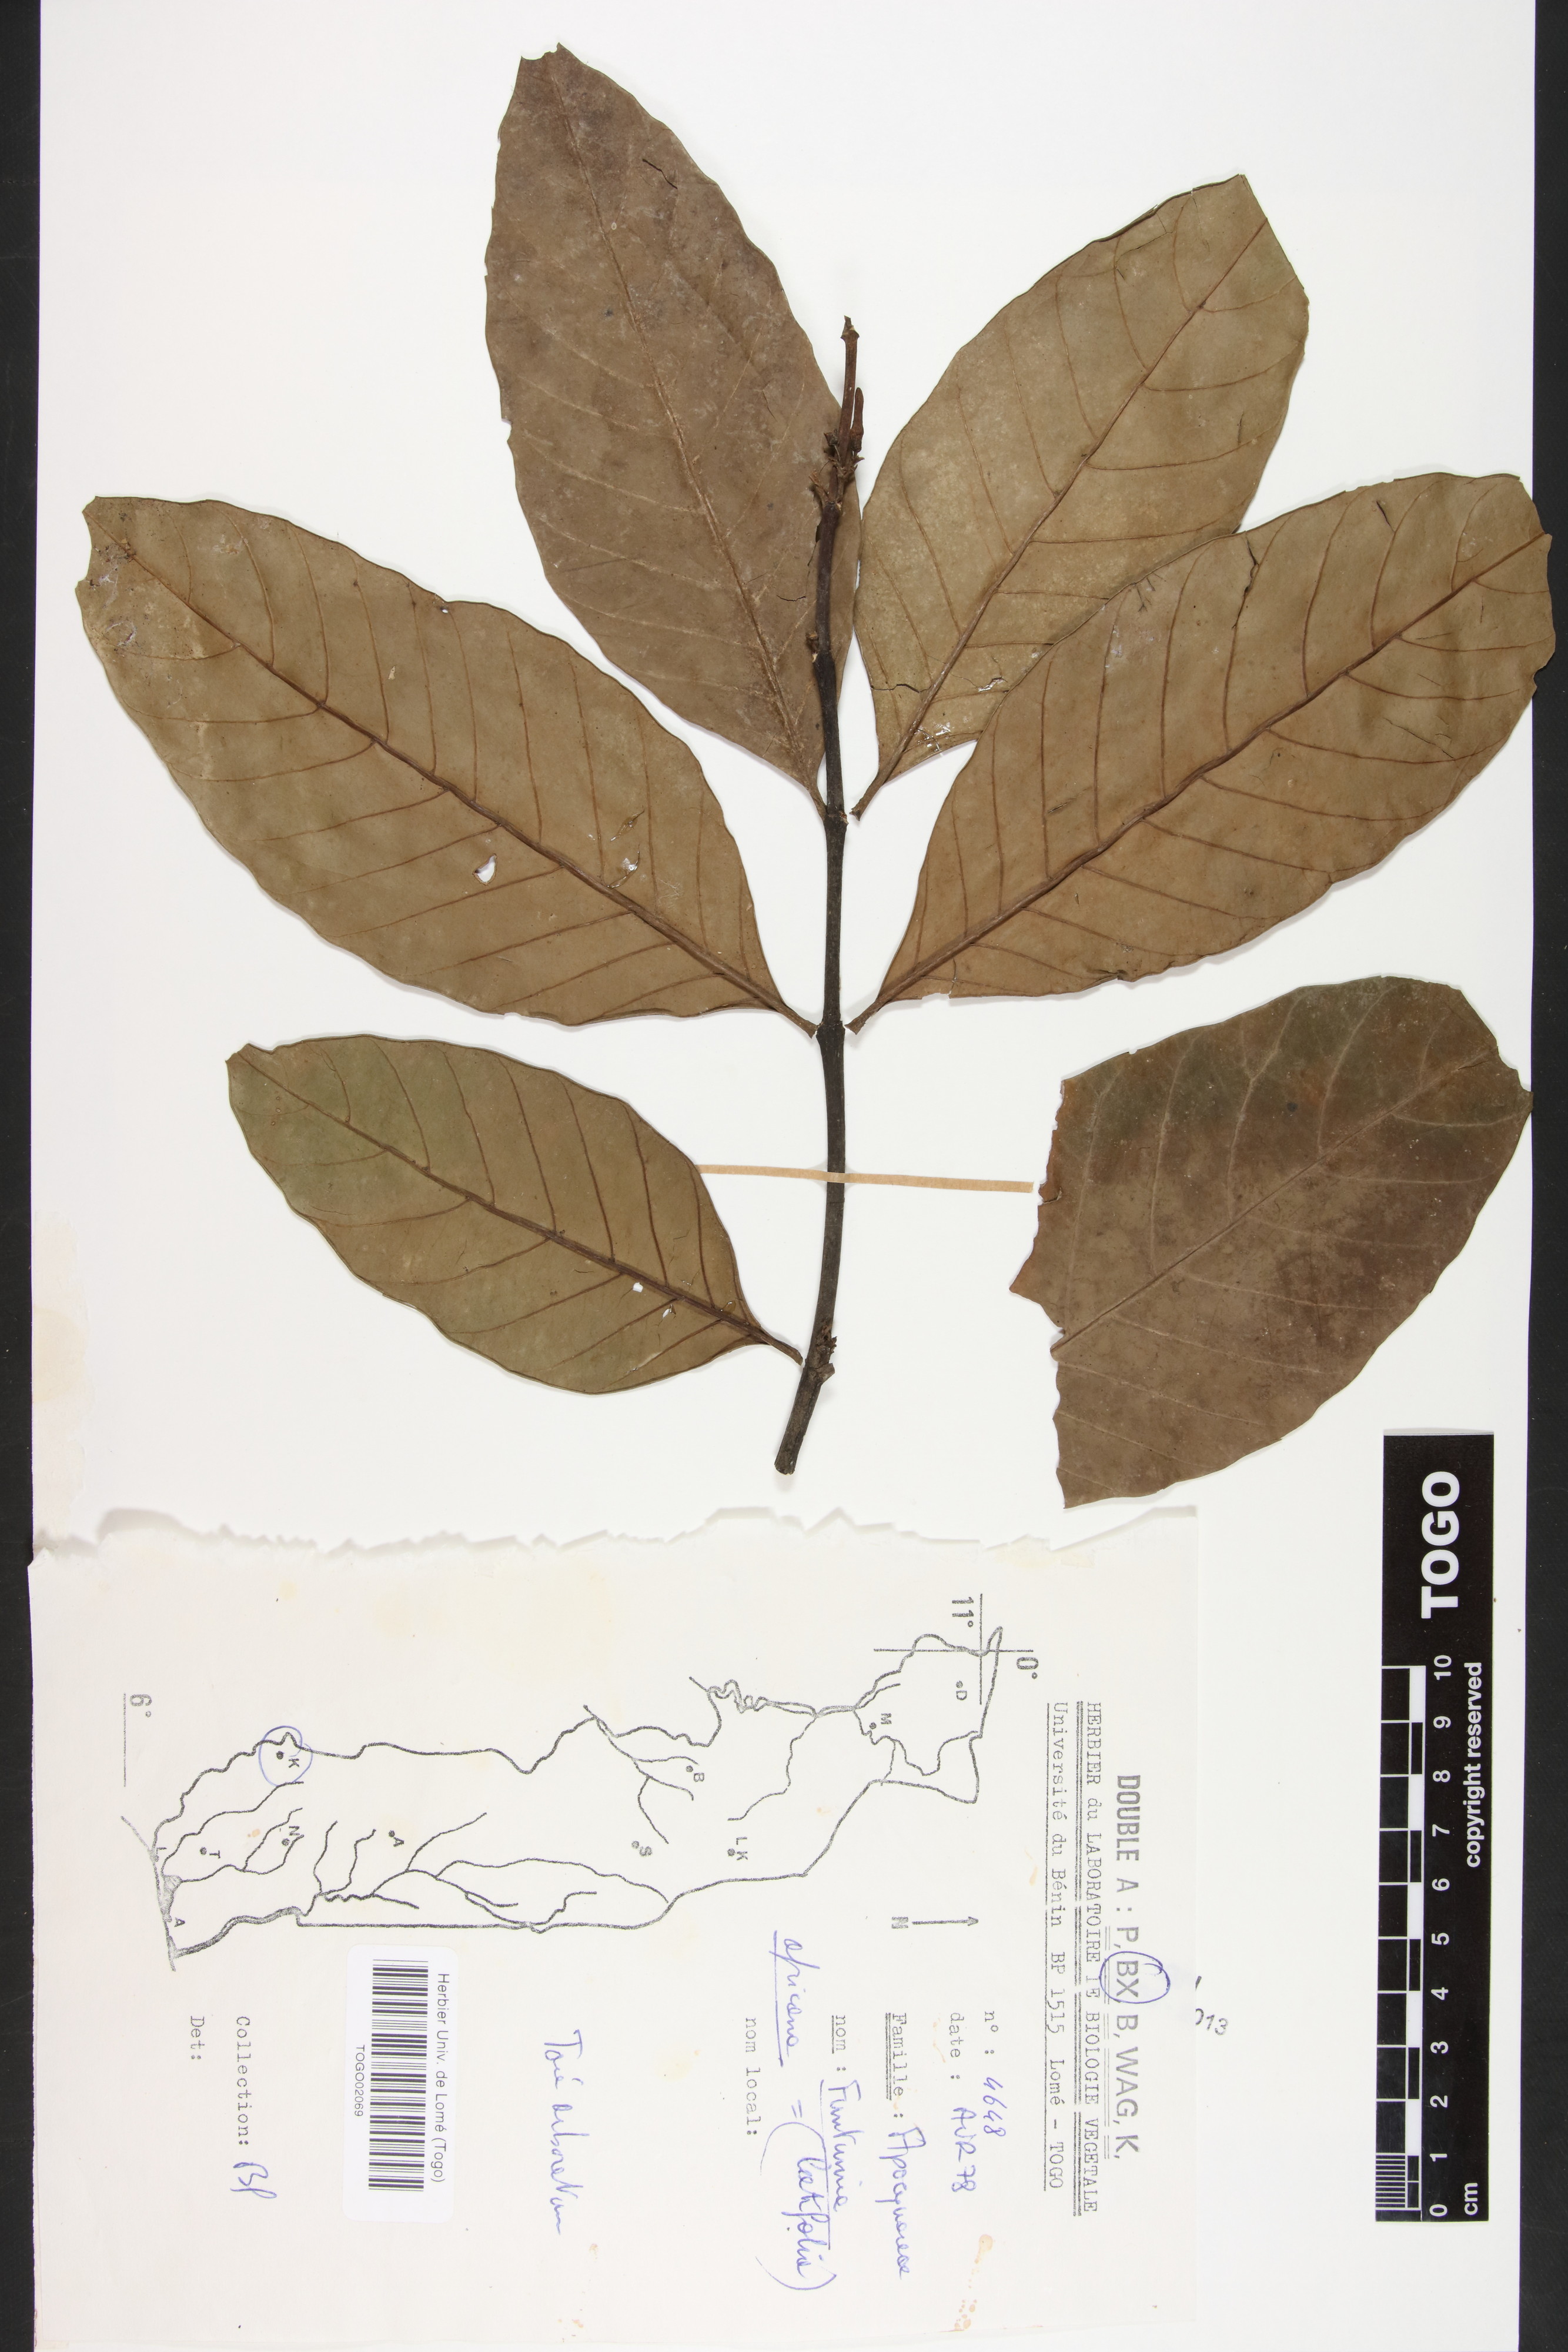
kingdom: Plantae
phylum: Tracheophyta
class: Magnoliopsida
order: Gentianales
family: Apocynaceae
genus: Funtumia
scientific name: Funtumia africana
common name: Lagos-rubber
